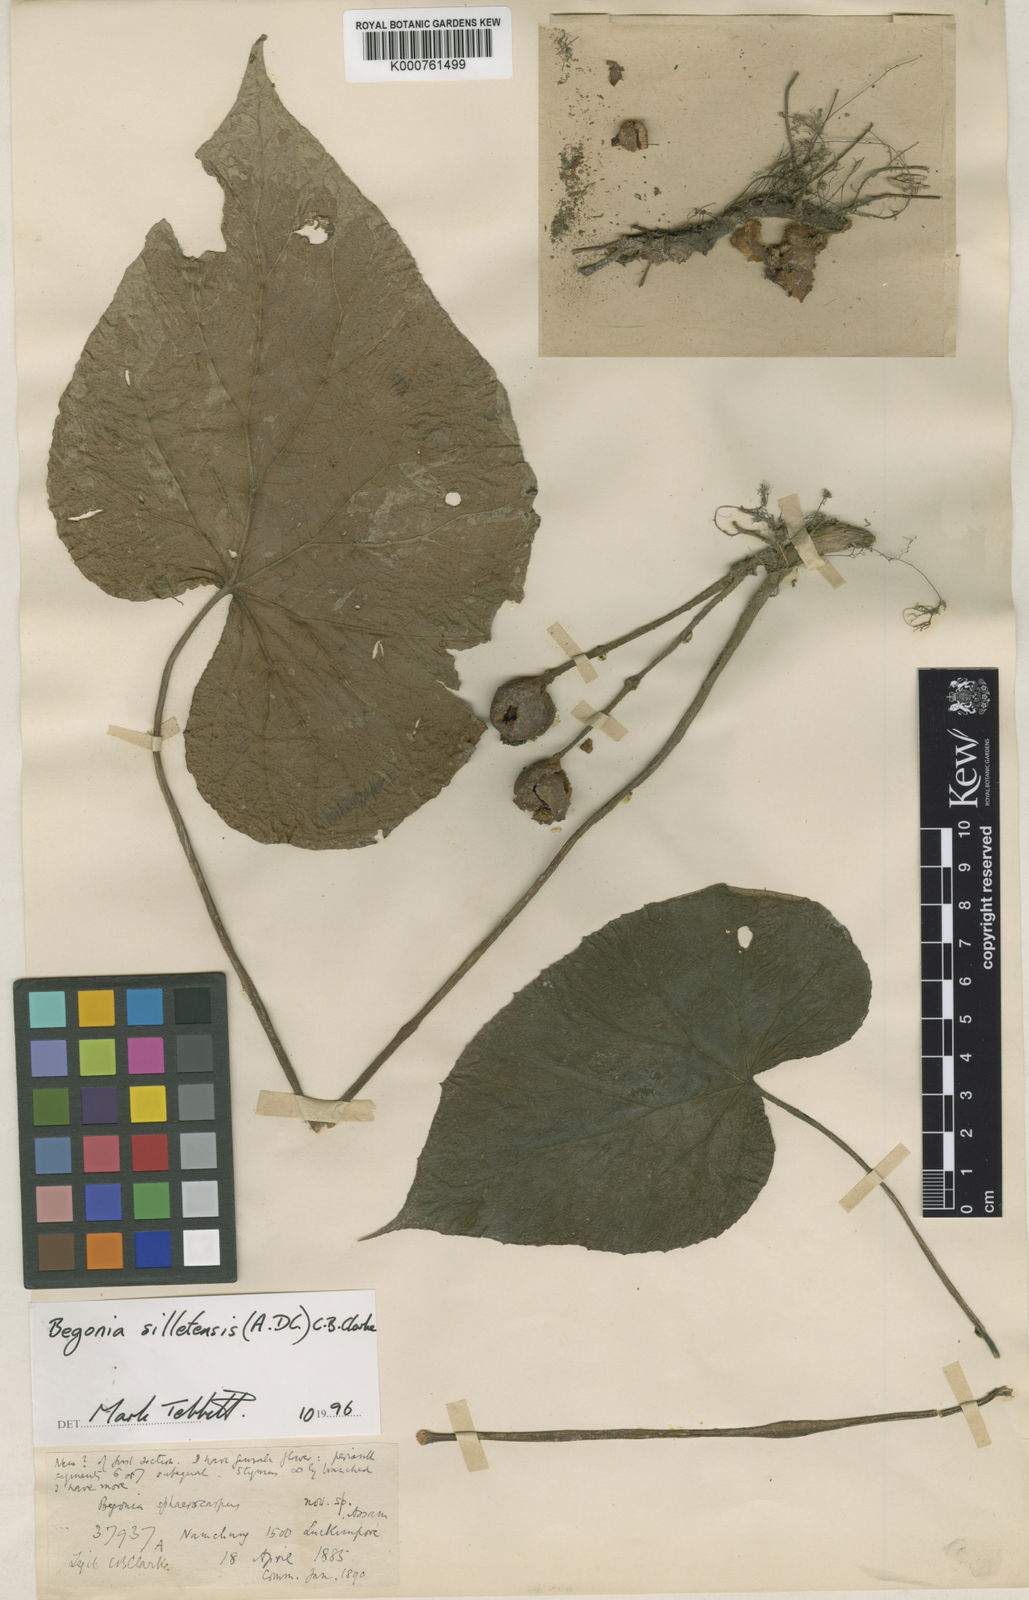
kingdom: Plantae
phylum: Tracheophyta
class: Magnoliopsida
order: Cucurbitales
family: Begoniaceae
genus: Begonia
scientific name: Begonia silletensis
